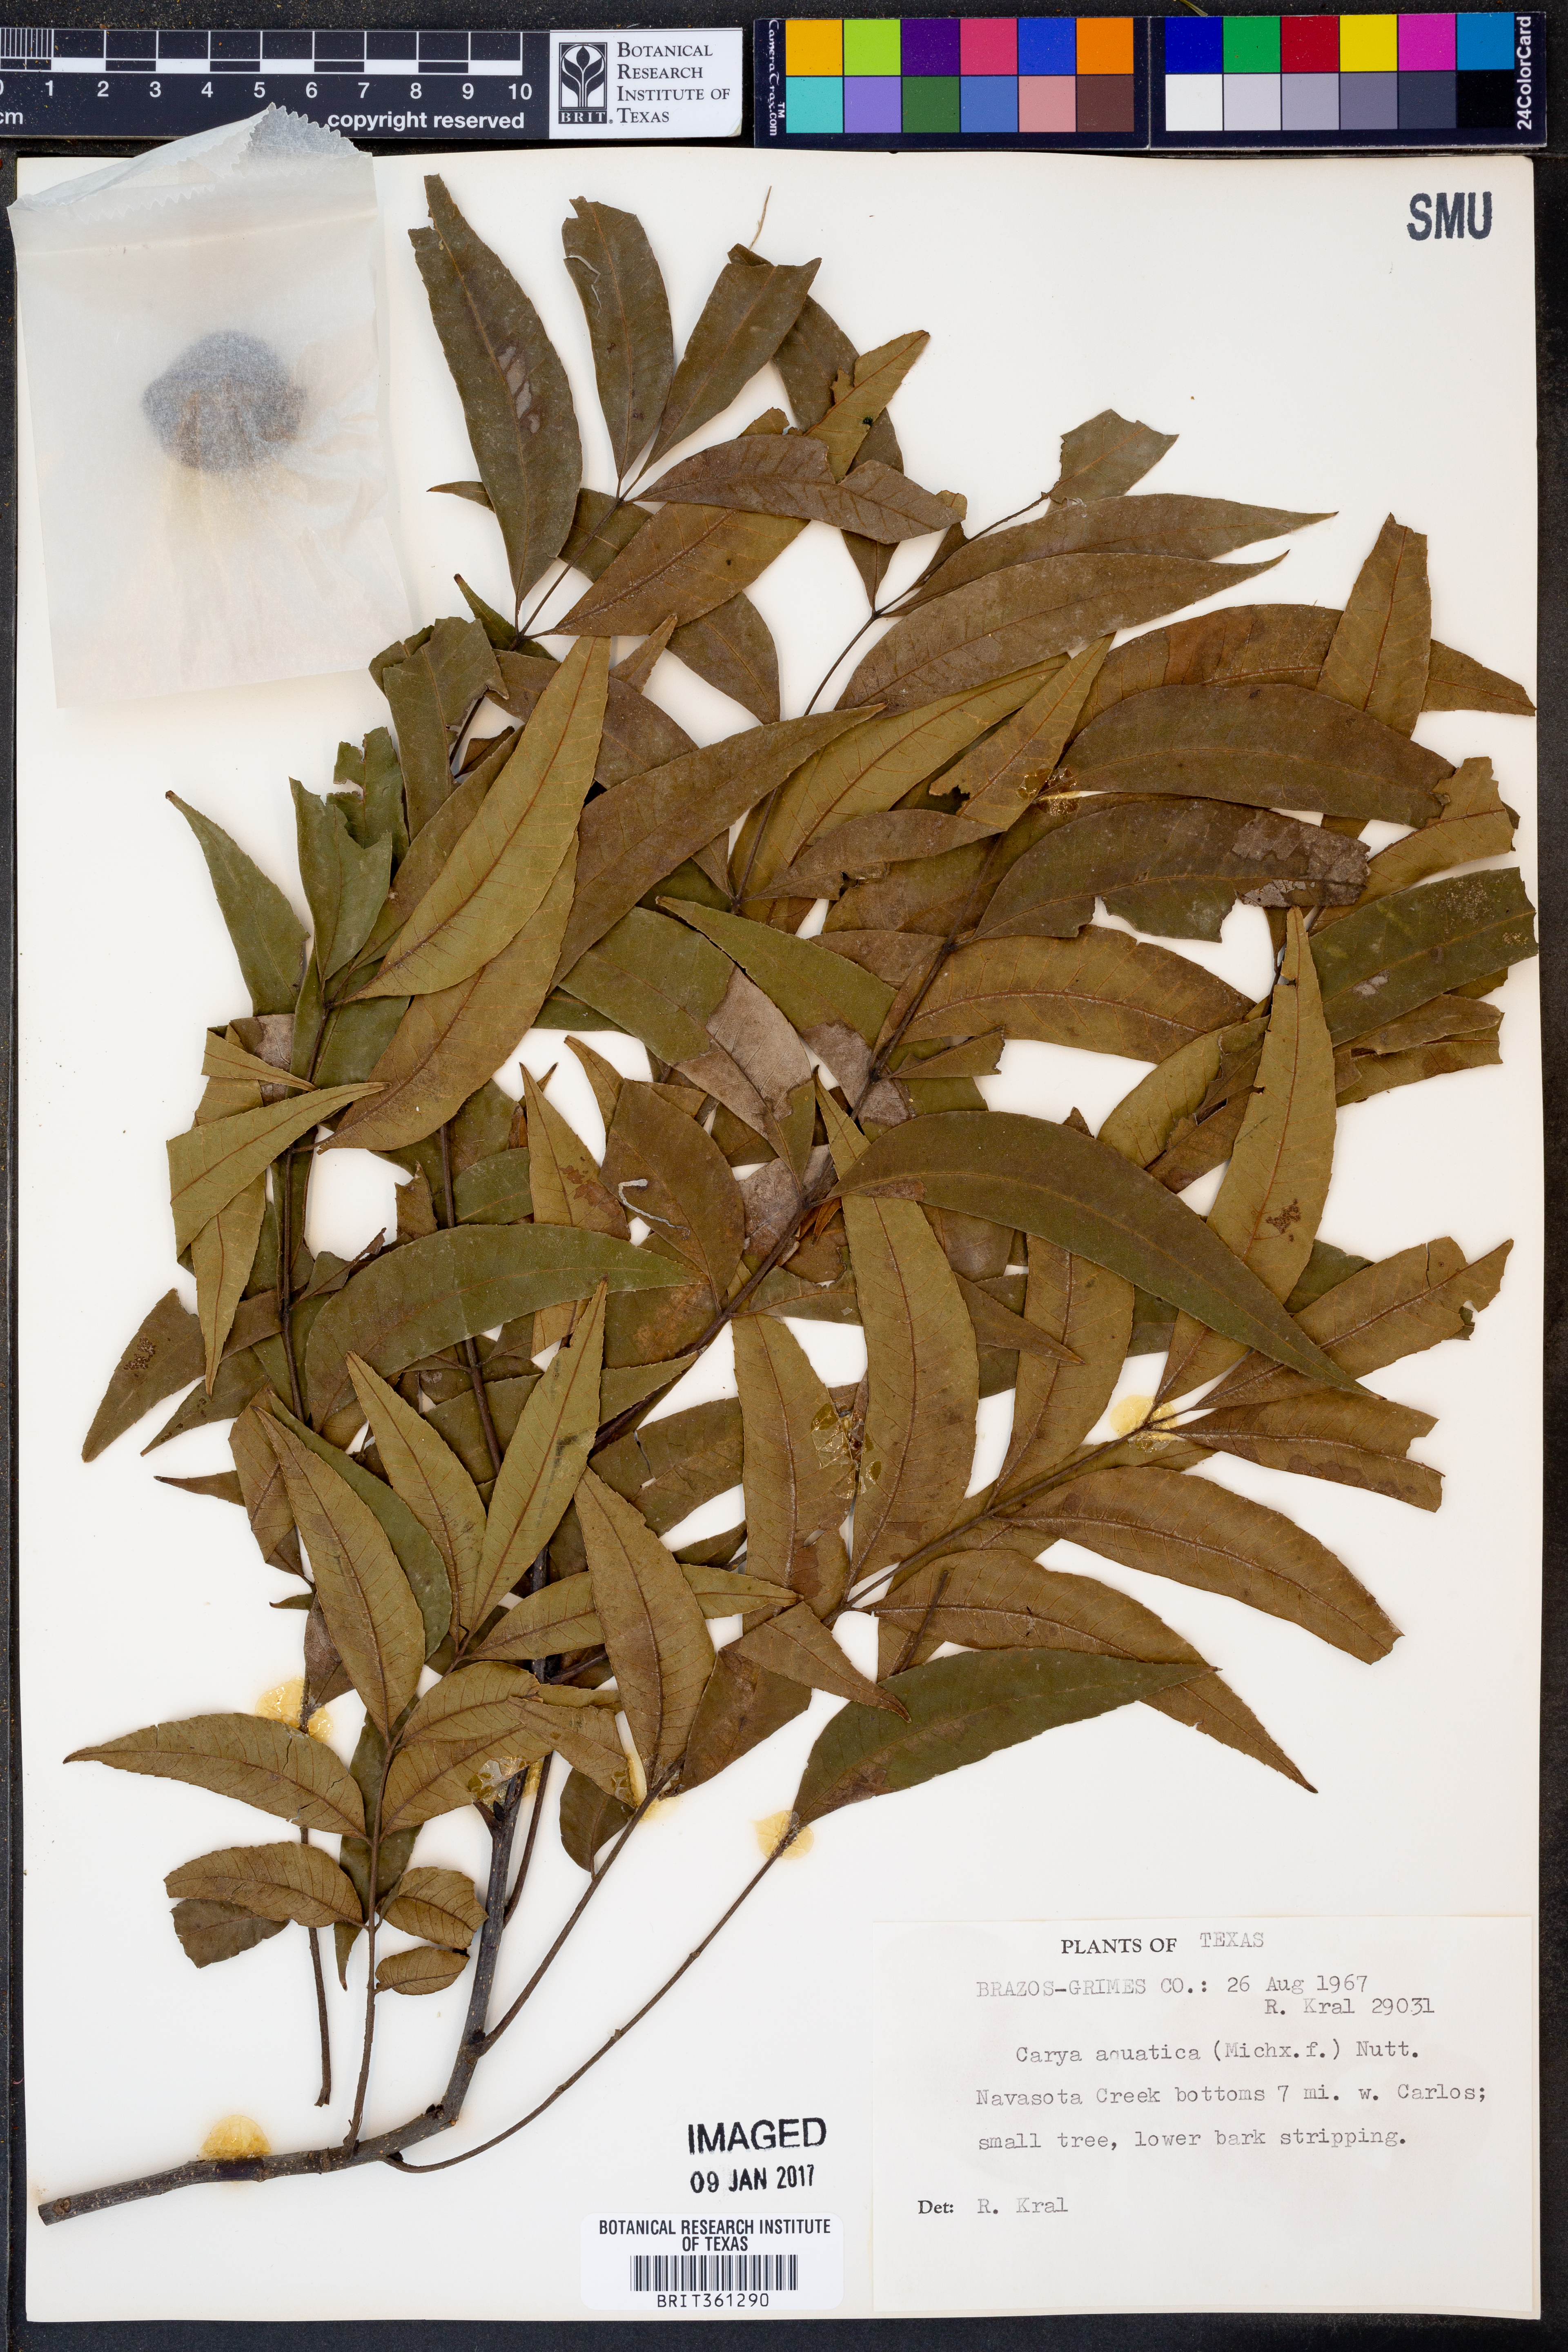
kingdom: Plantae
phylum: Tracheophyta
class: Magnoliopsida
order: Fagales
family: Juglandaceae
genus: Carya
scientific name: Carya aquatica
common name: Water hickory
